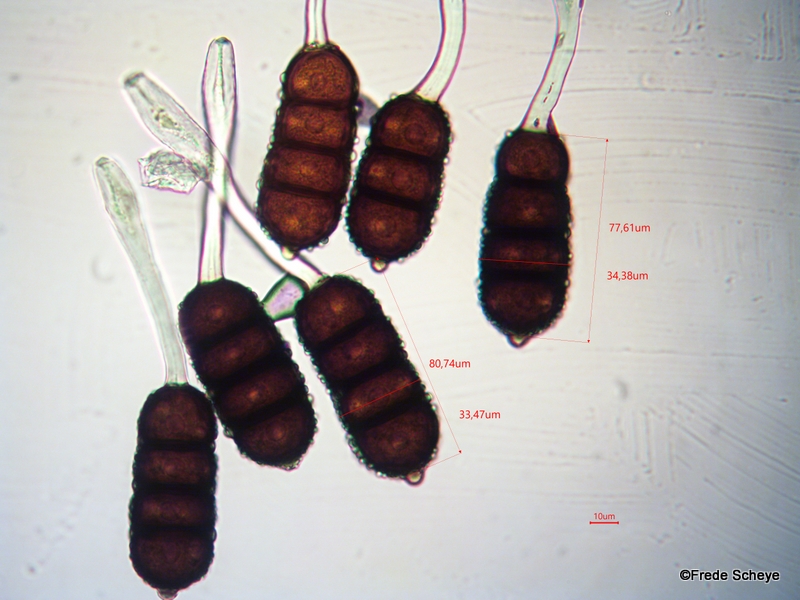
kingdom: Fungi
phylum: Basidiomycota
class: Pucciniomycetes
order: Pucciniales
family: Phragmidiaceae
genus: Phragmidium
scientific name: Phragmidium violaceum
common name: violet flercellerust
